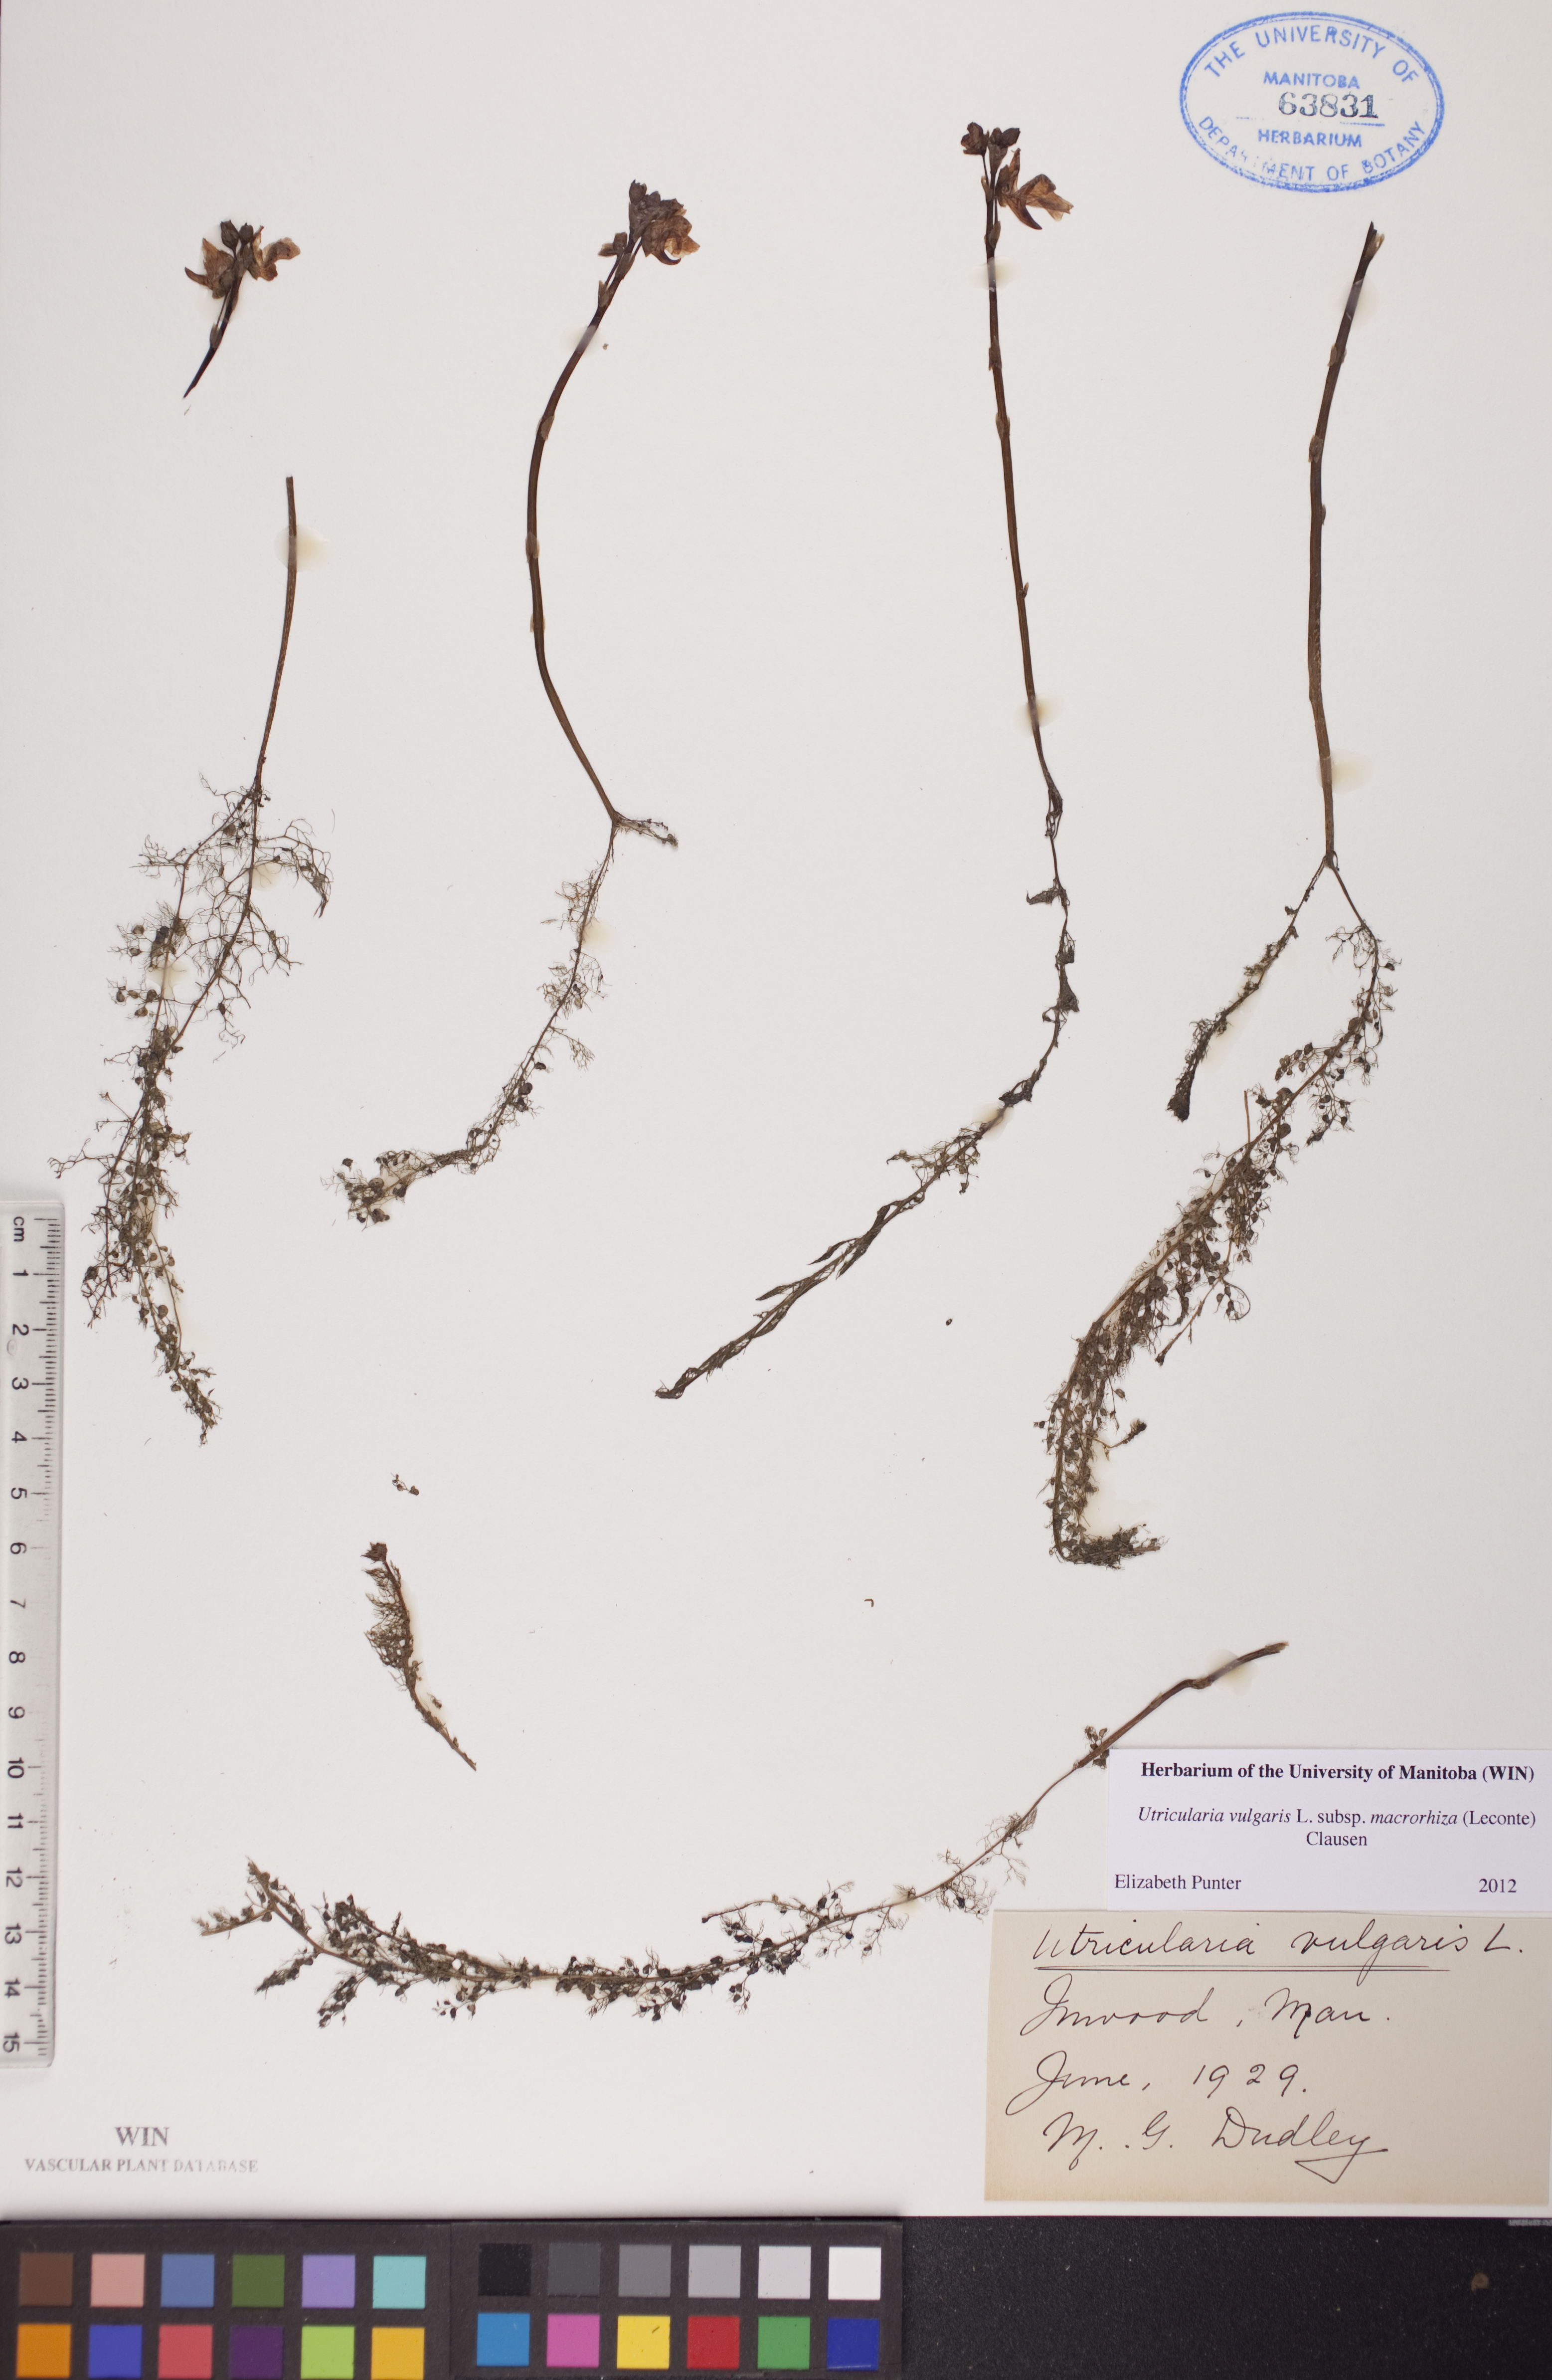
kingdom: Plantae
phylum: Tracheophyta
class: Magnoliopsida
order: Lamiales
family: Lentibulariaceae
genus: Utricularia
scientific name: Utricularia macrorhiza
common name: Common bladderwort
